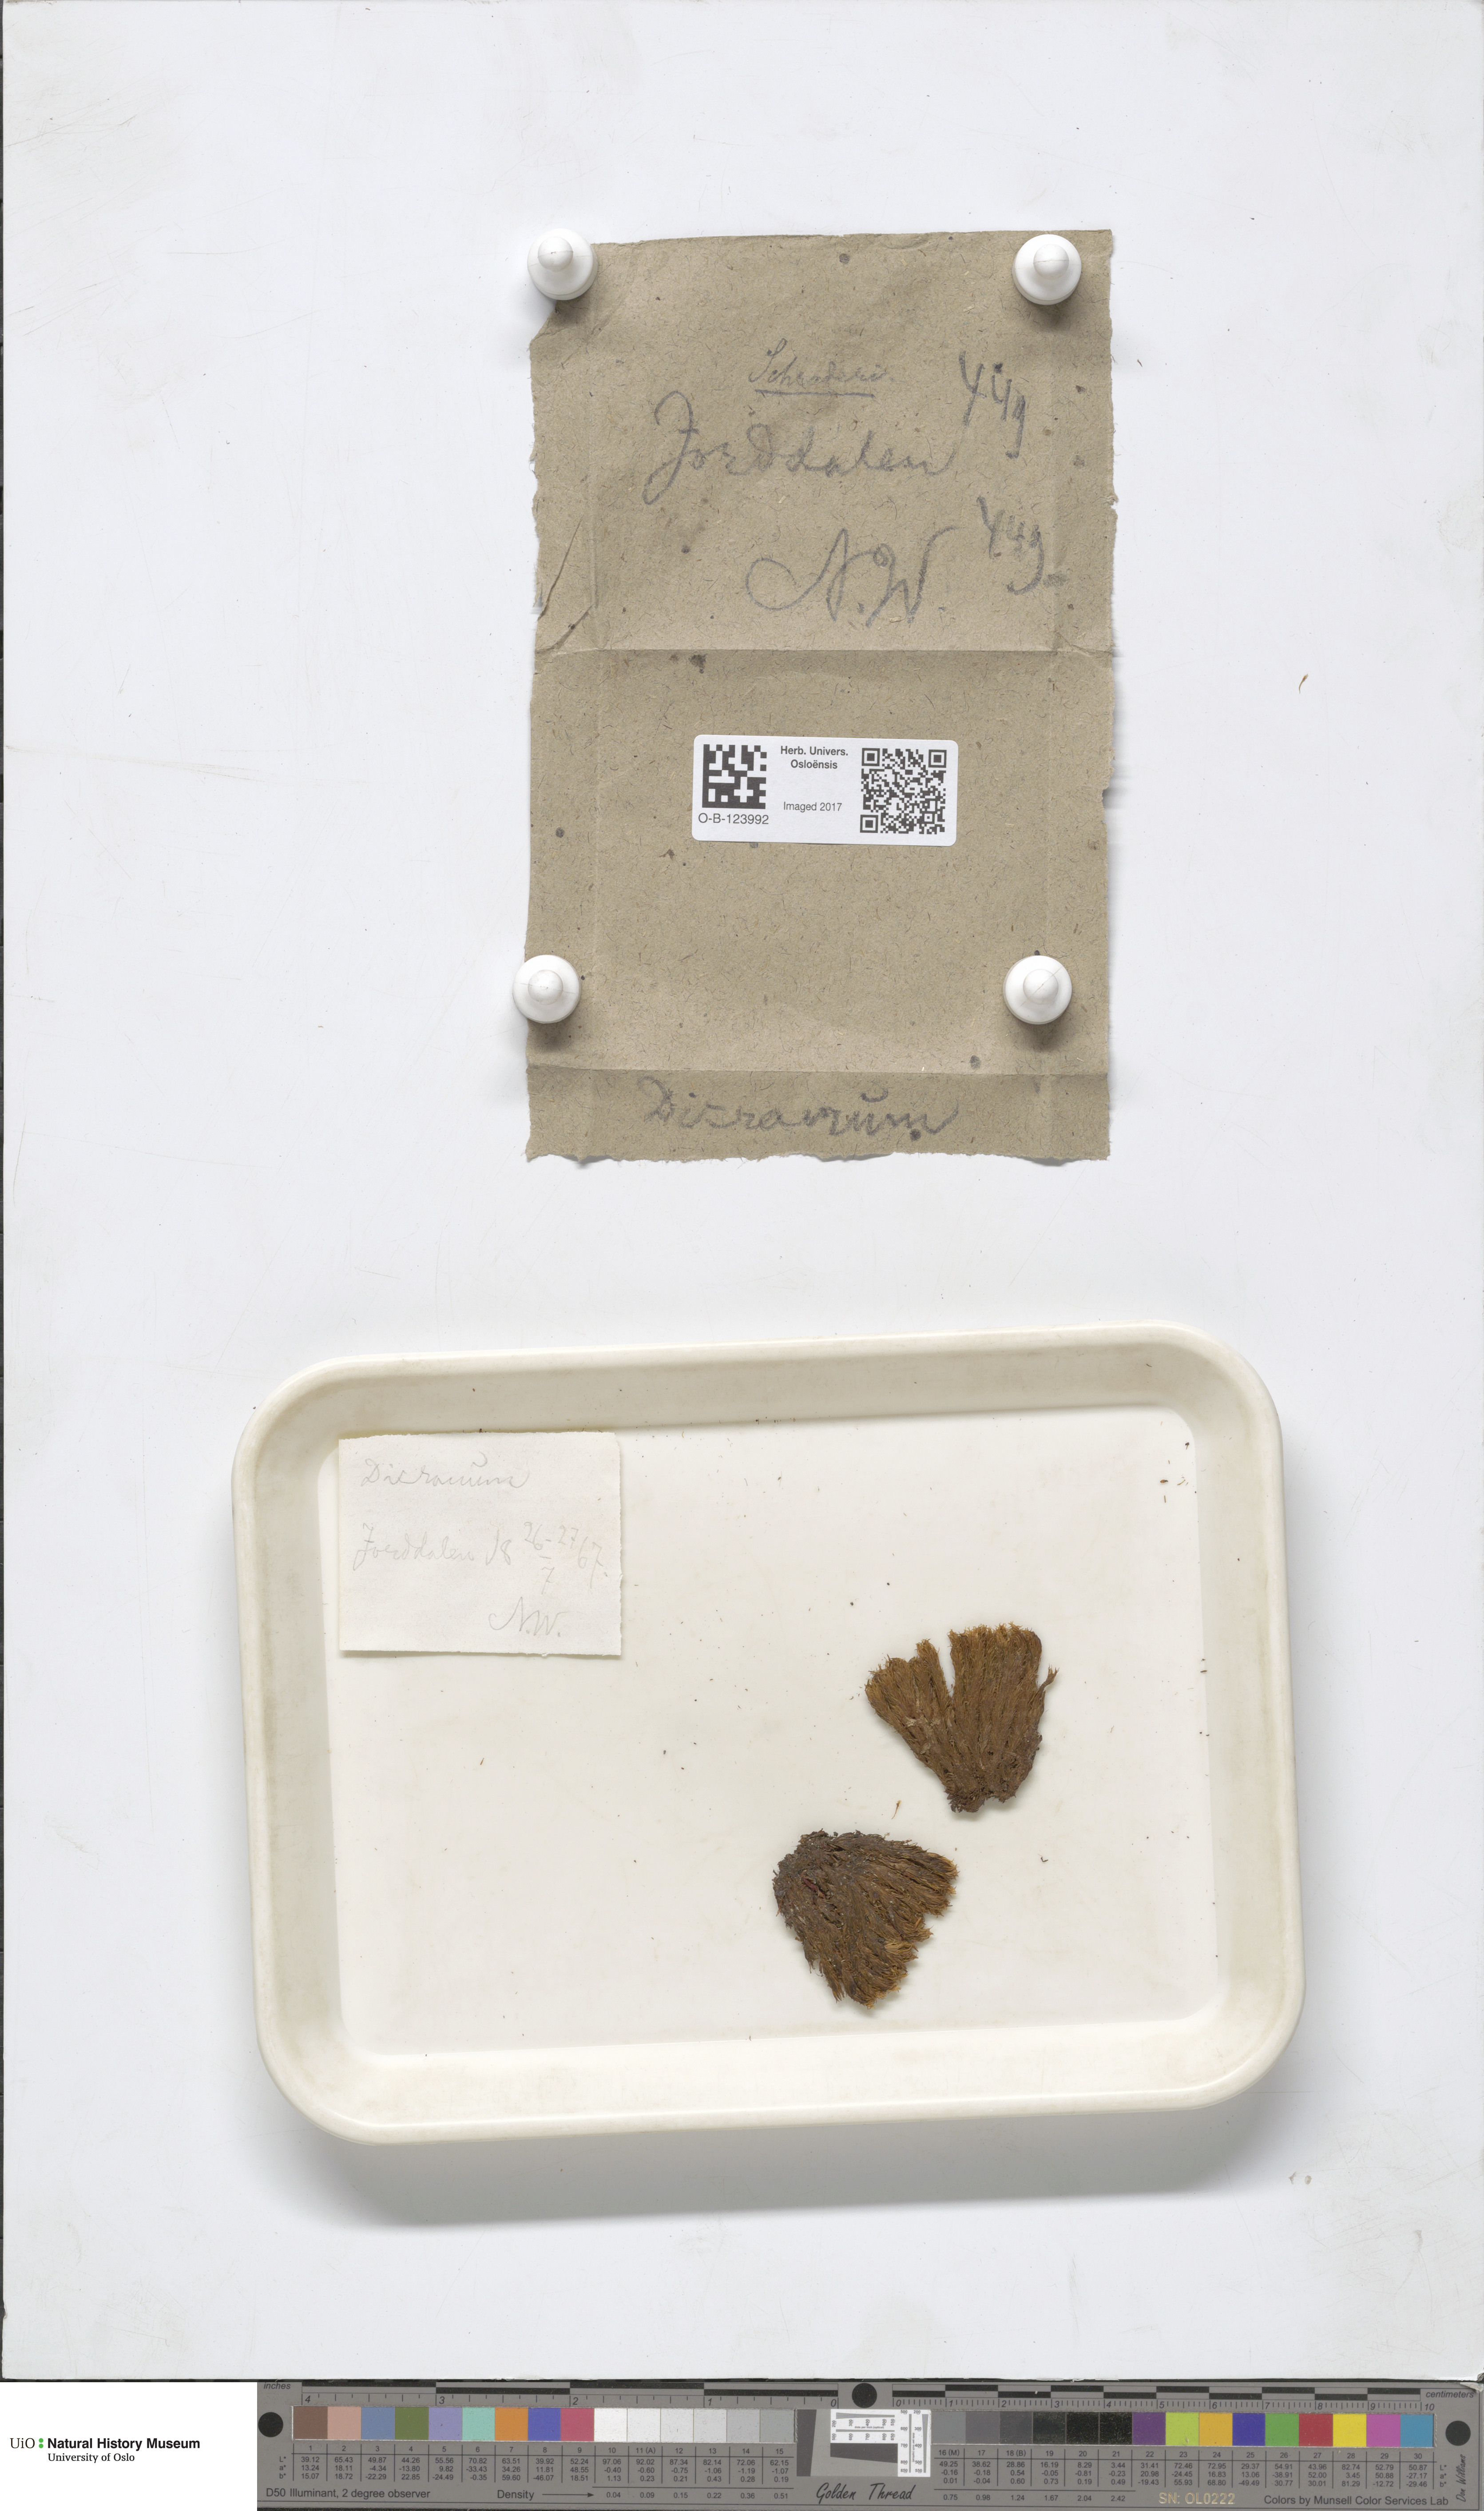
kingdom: Plantae
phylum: Bryophyta
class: Bryopsida
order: Dicranales
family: Dicranaceae
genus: Dicranum
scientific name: Dicranum undulatum
